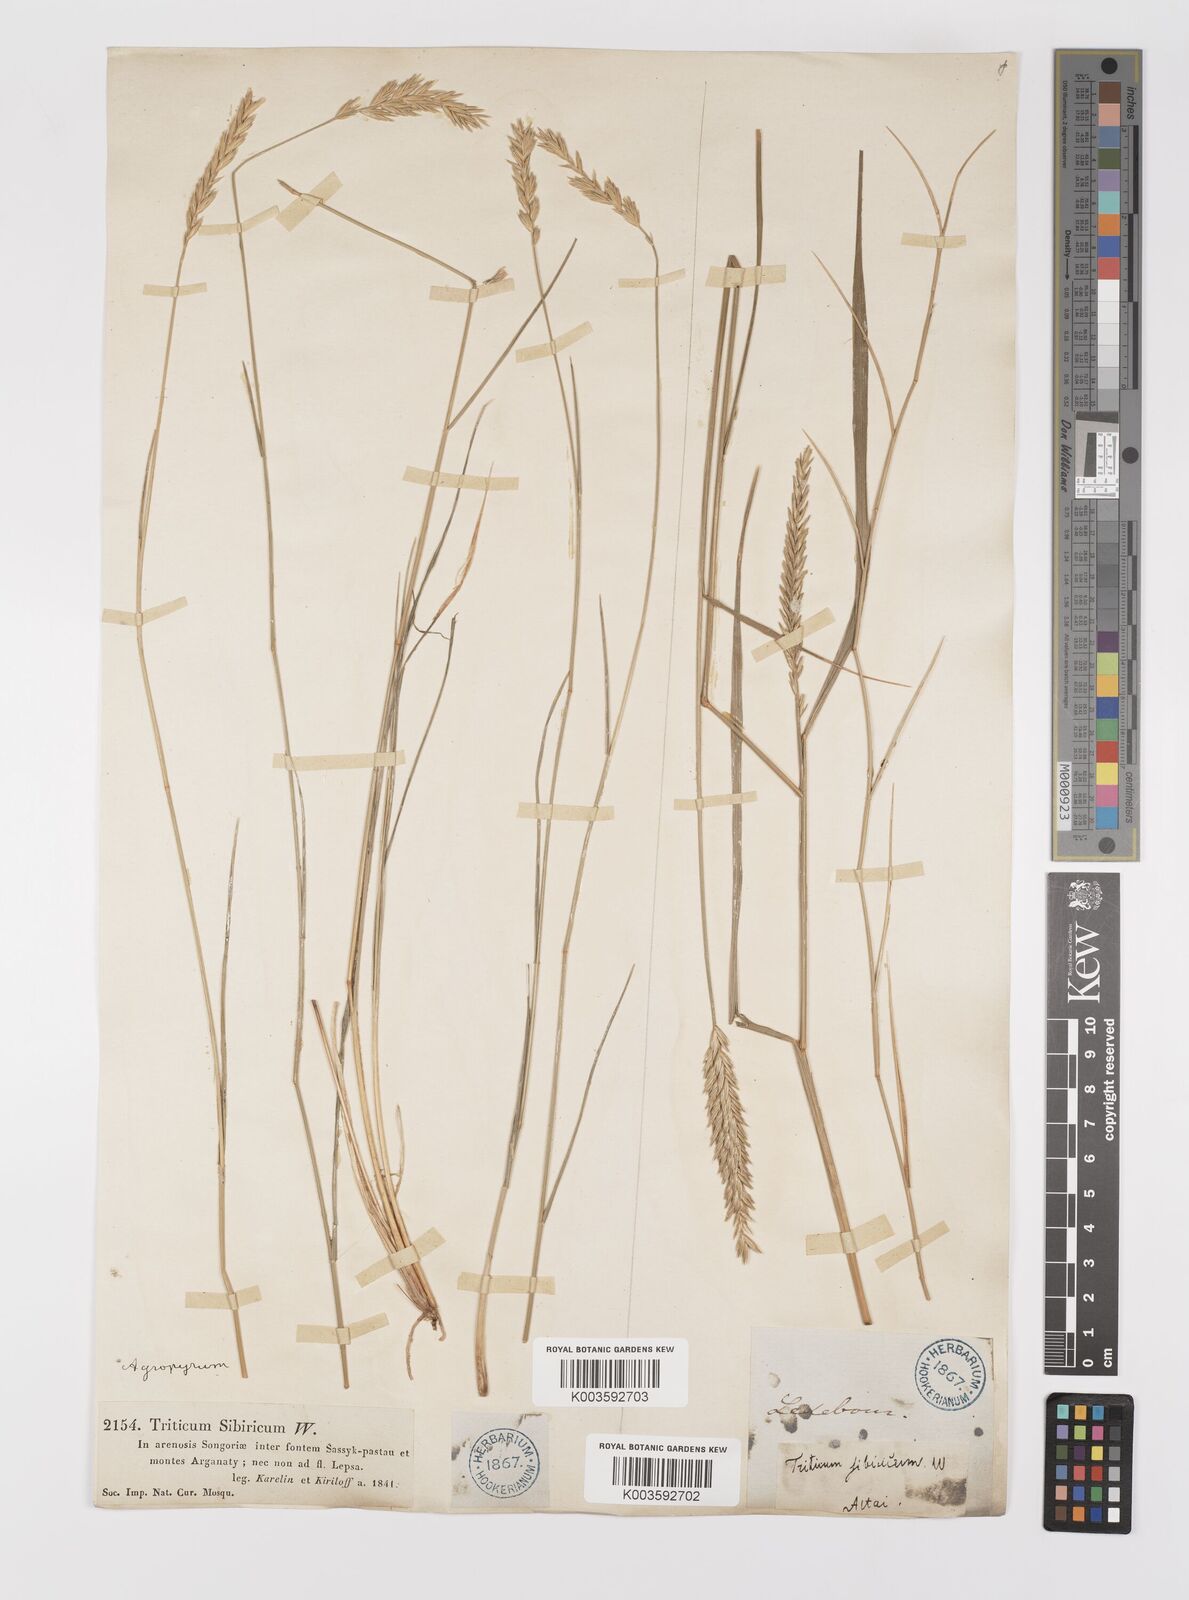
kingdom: Plantae
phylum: Tracheophyta
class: Liliopsida
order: Poales
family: Poaceae
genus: Agropyron
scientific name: Agropyron fragile
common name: Siberian wheatgrass
